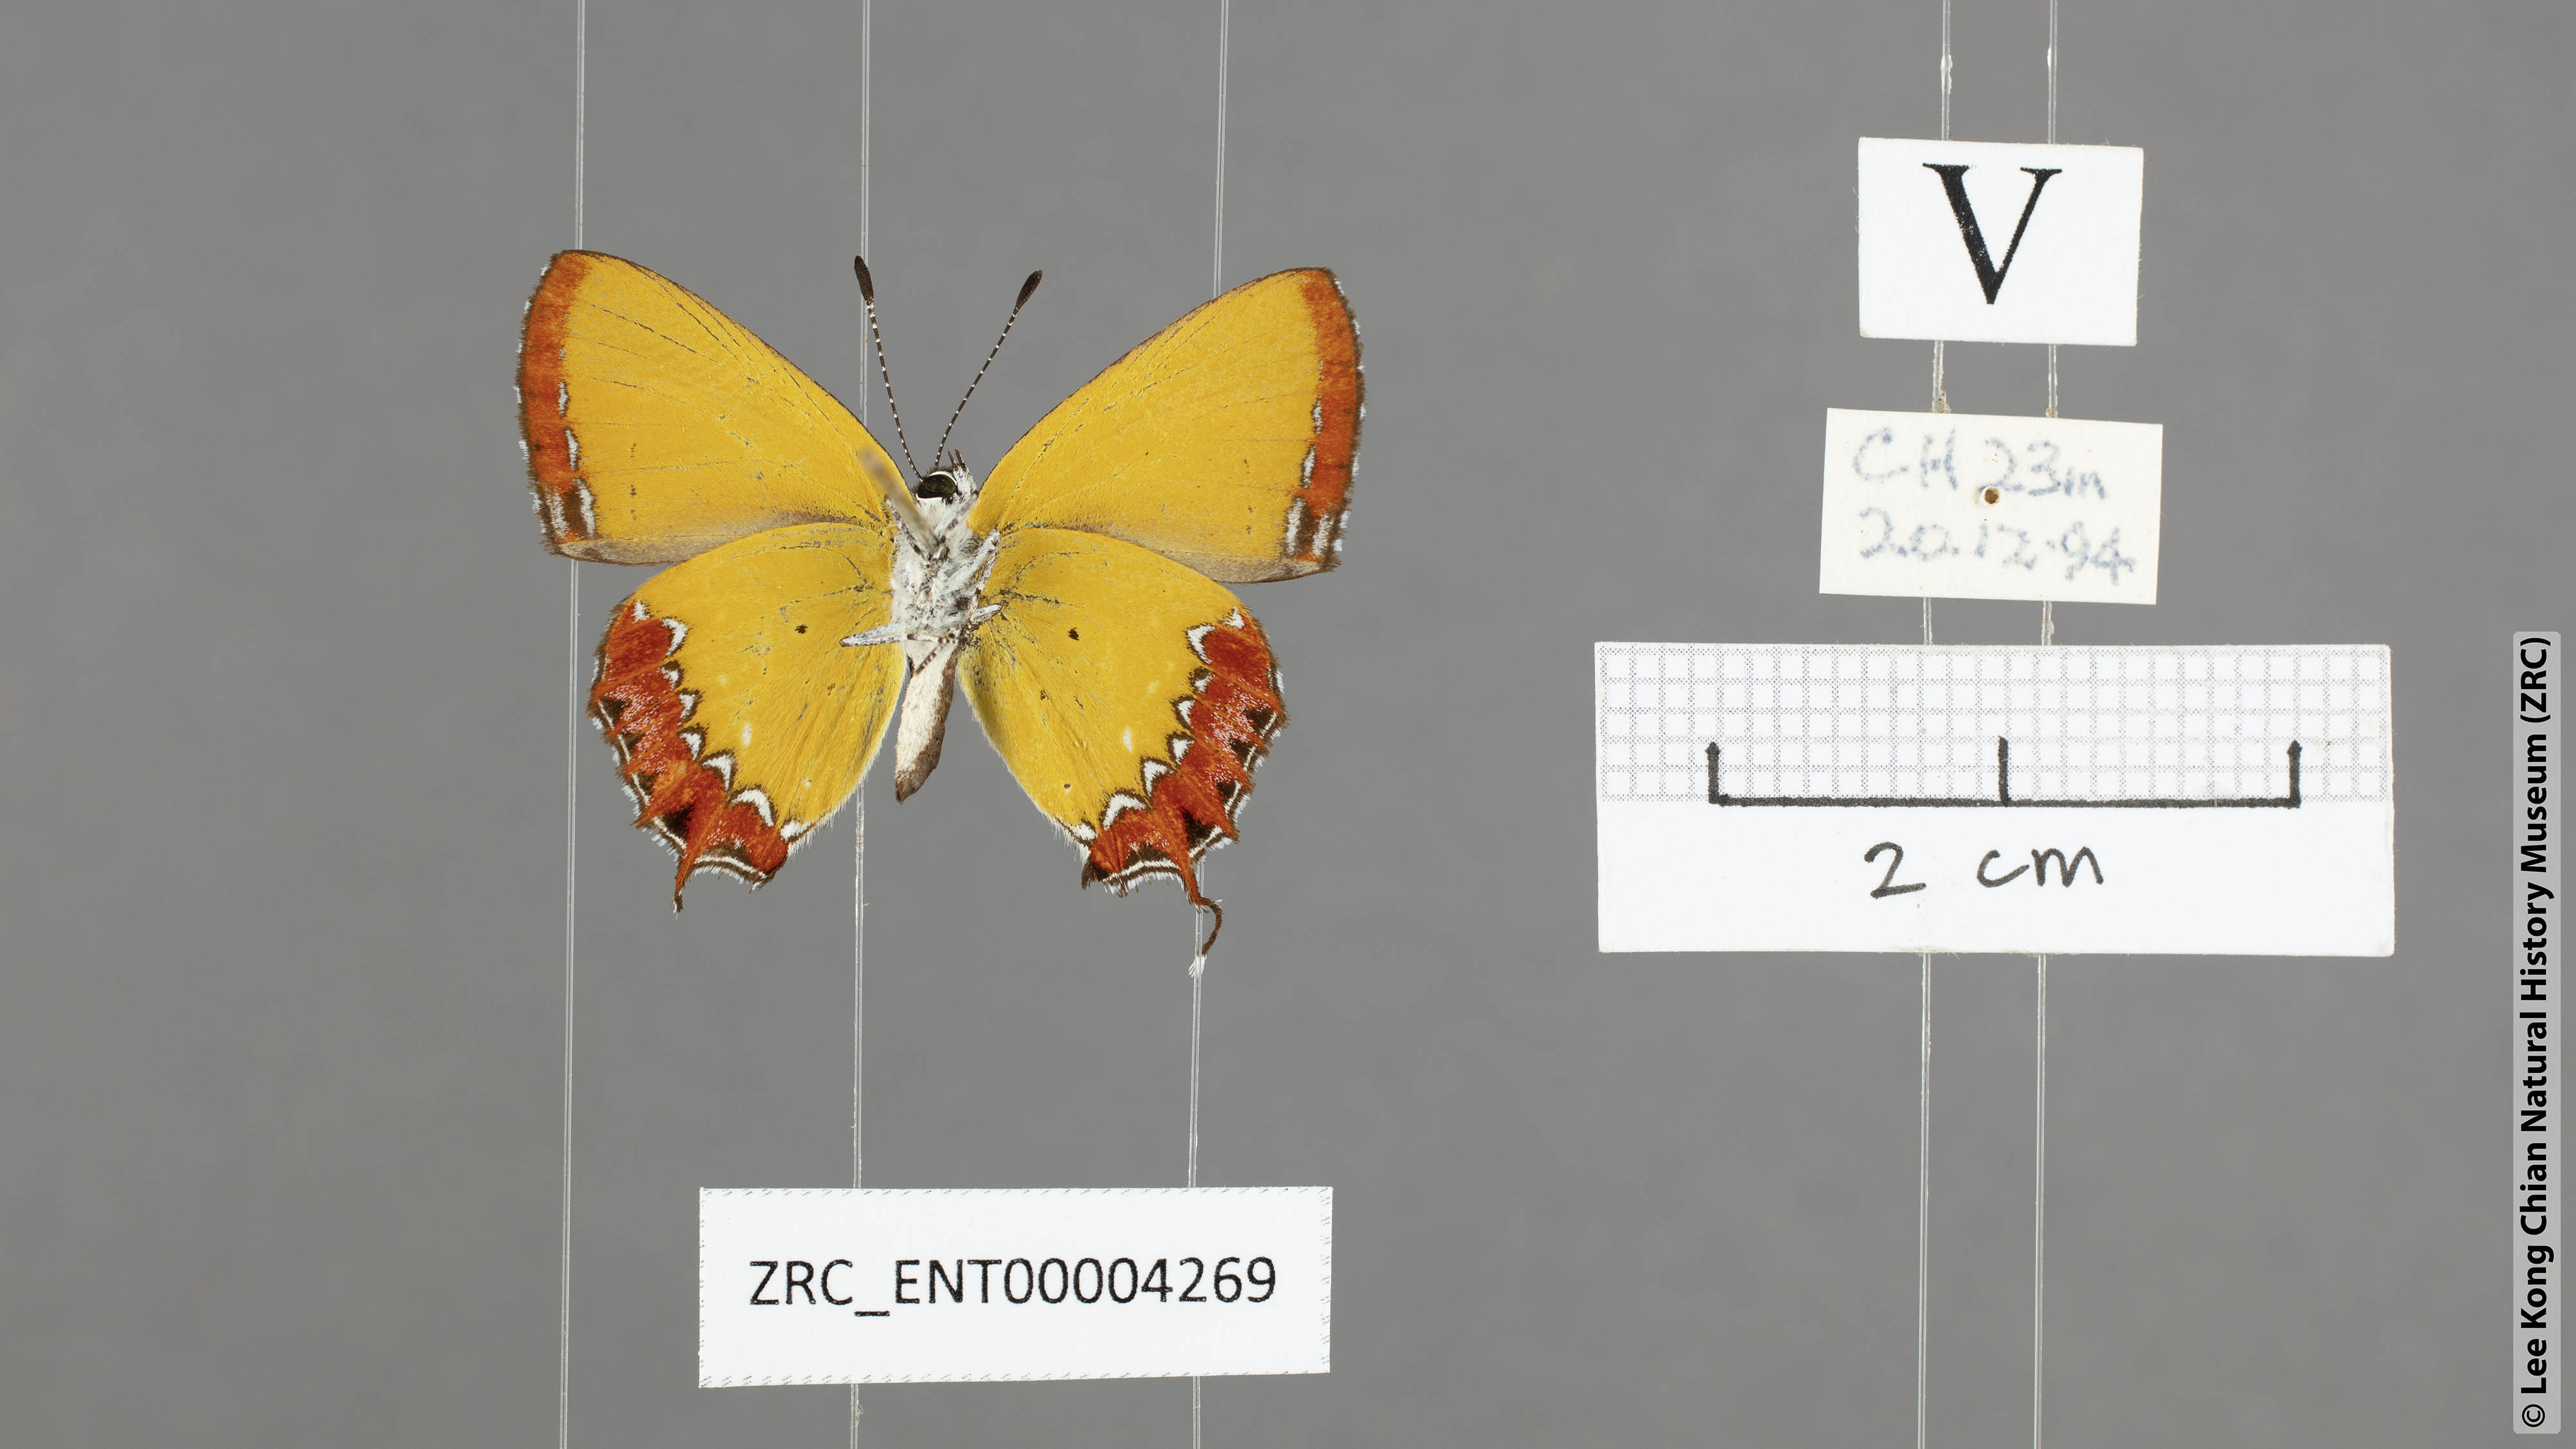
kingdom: Animalia
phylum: Arthropoda
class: Insecta
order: Lepidoptera
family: Lycaenidae
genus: Heliophorus
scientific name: Heliophorus epicles
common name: Purple sapphire
